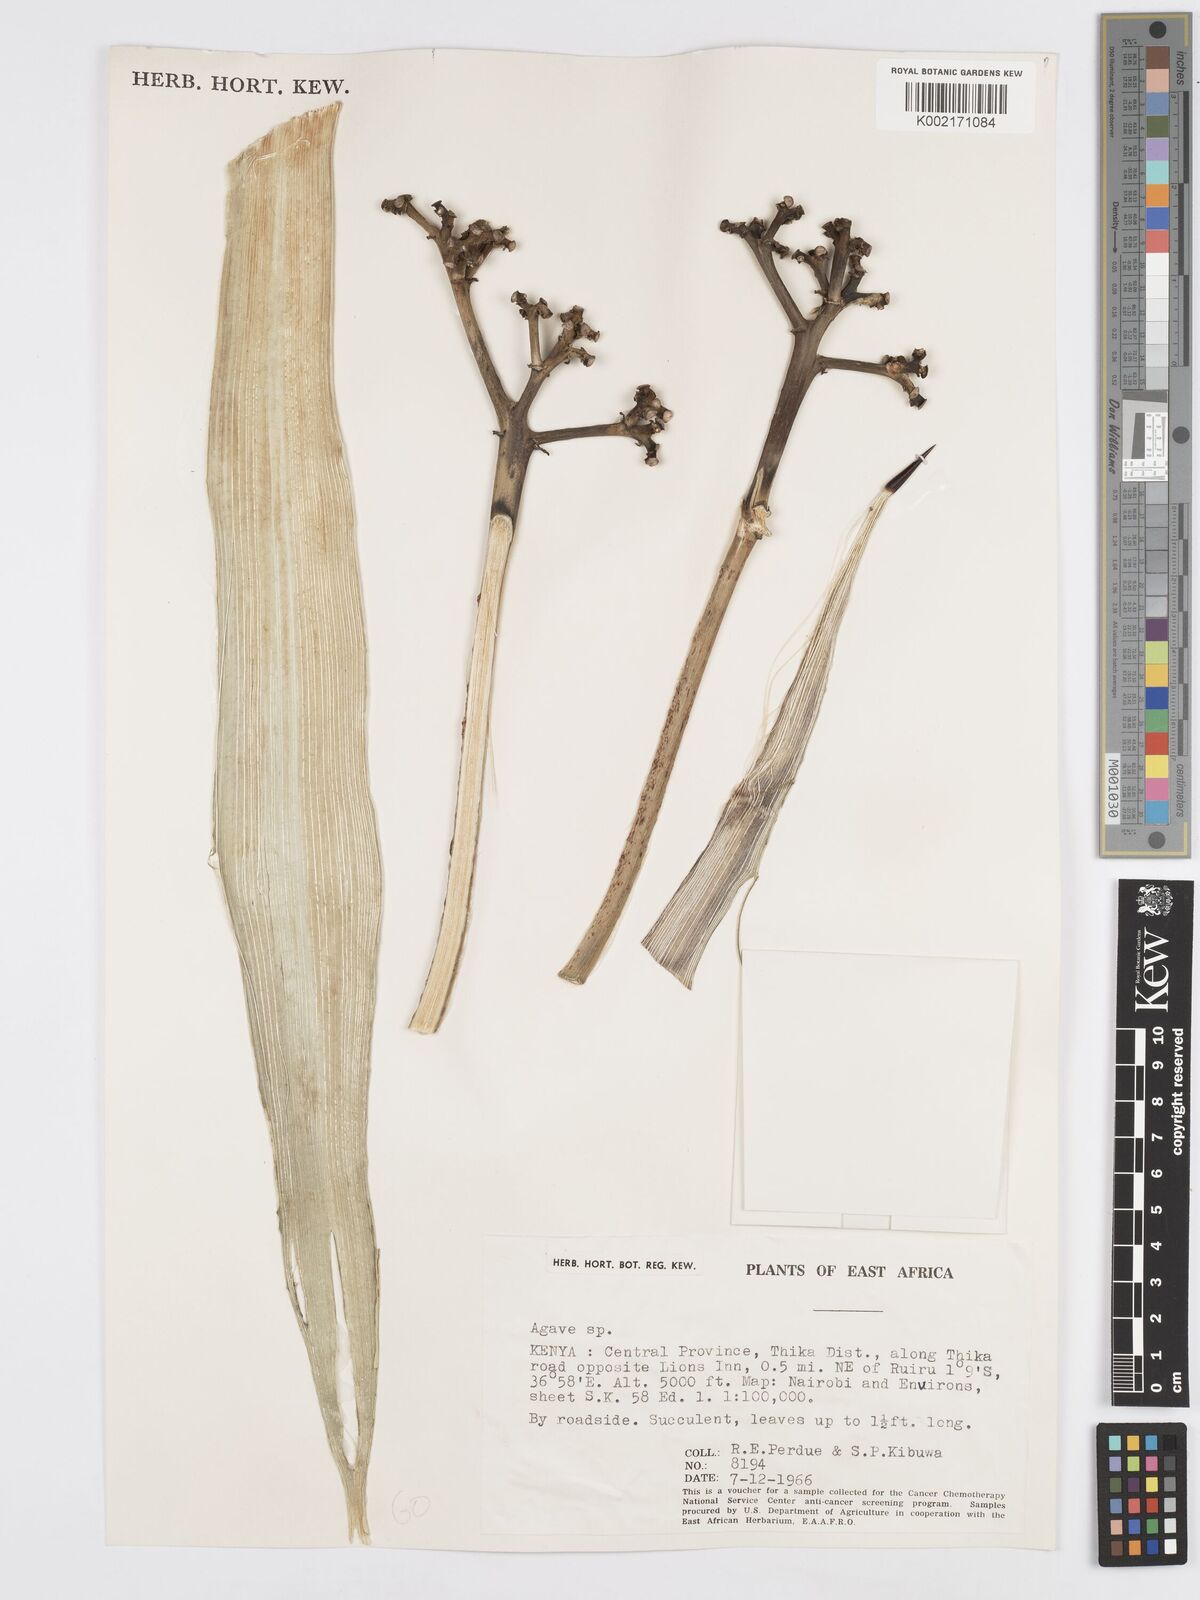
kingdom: Plantae
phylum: Tracheophyta
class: Liliopsida
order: Asparagales
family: Asparagaceae
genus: Agave
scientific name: Agave
